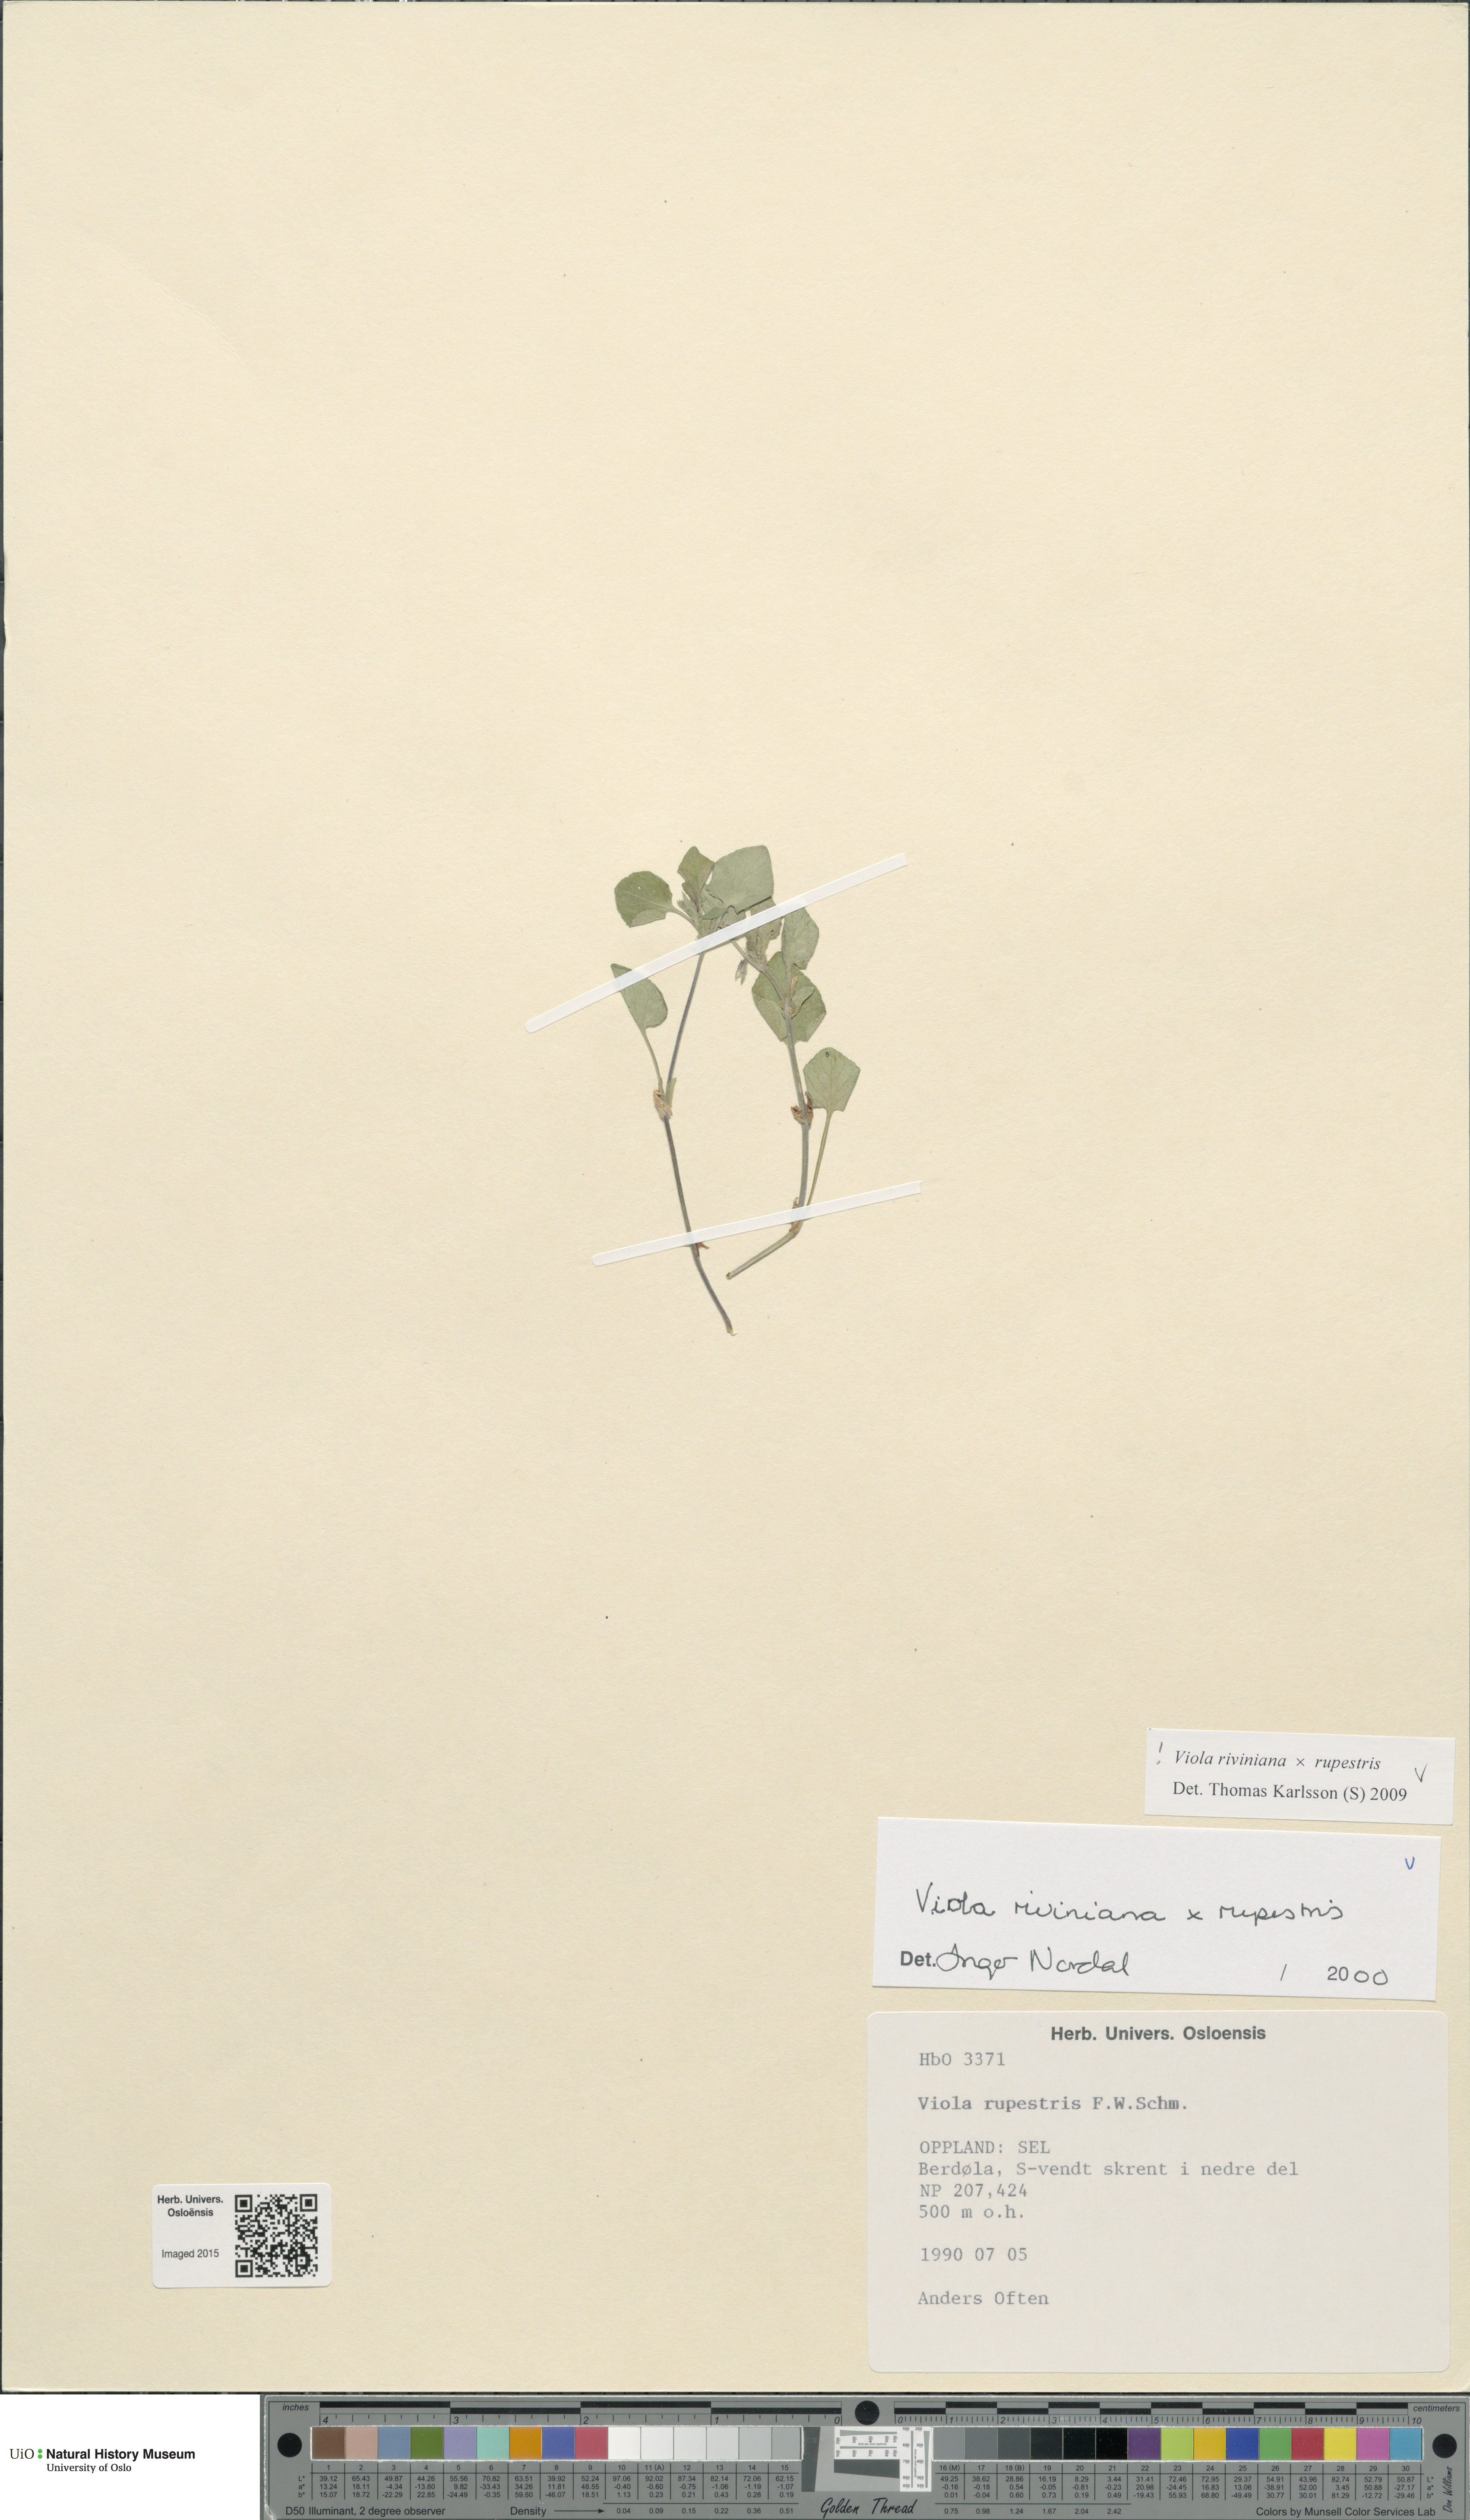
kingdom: Plantae
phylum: Tracheophyta
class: Magnoliopsida
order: Malpighiales
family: Violaceae
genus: Viola
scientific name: Viola
